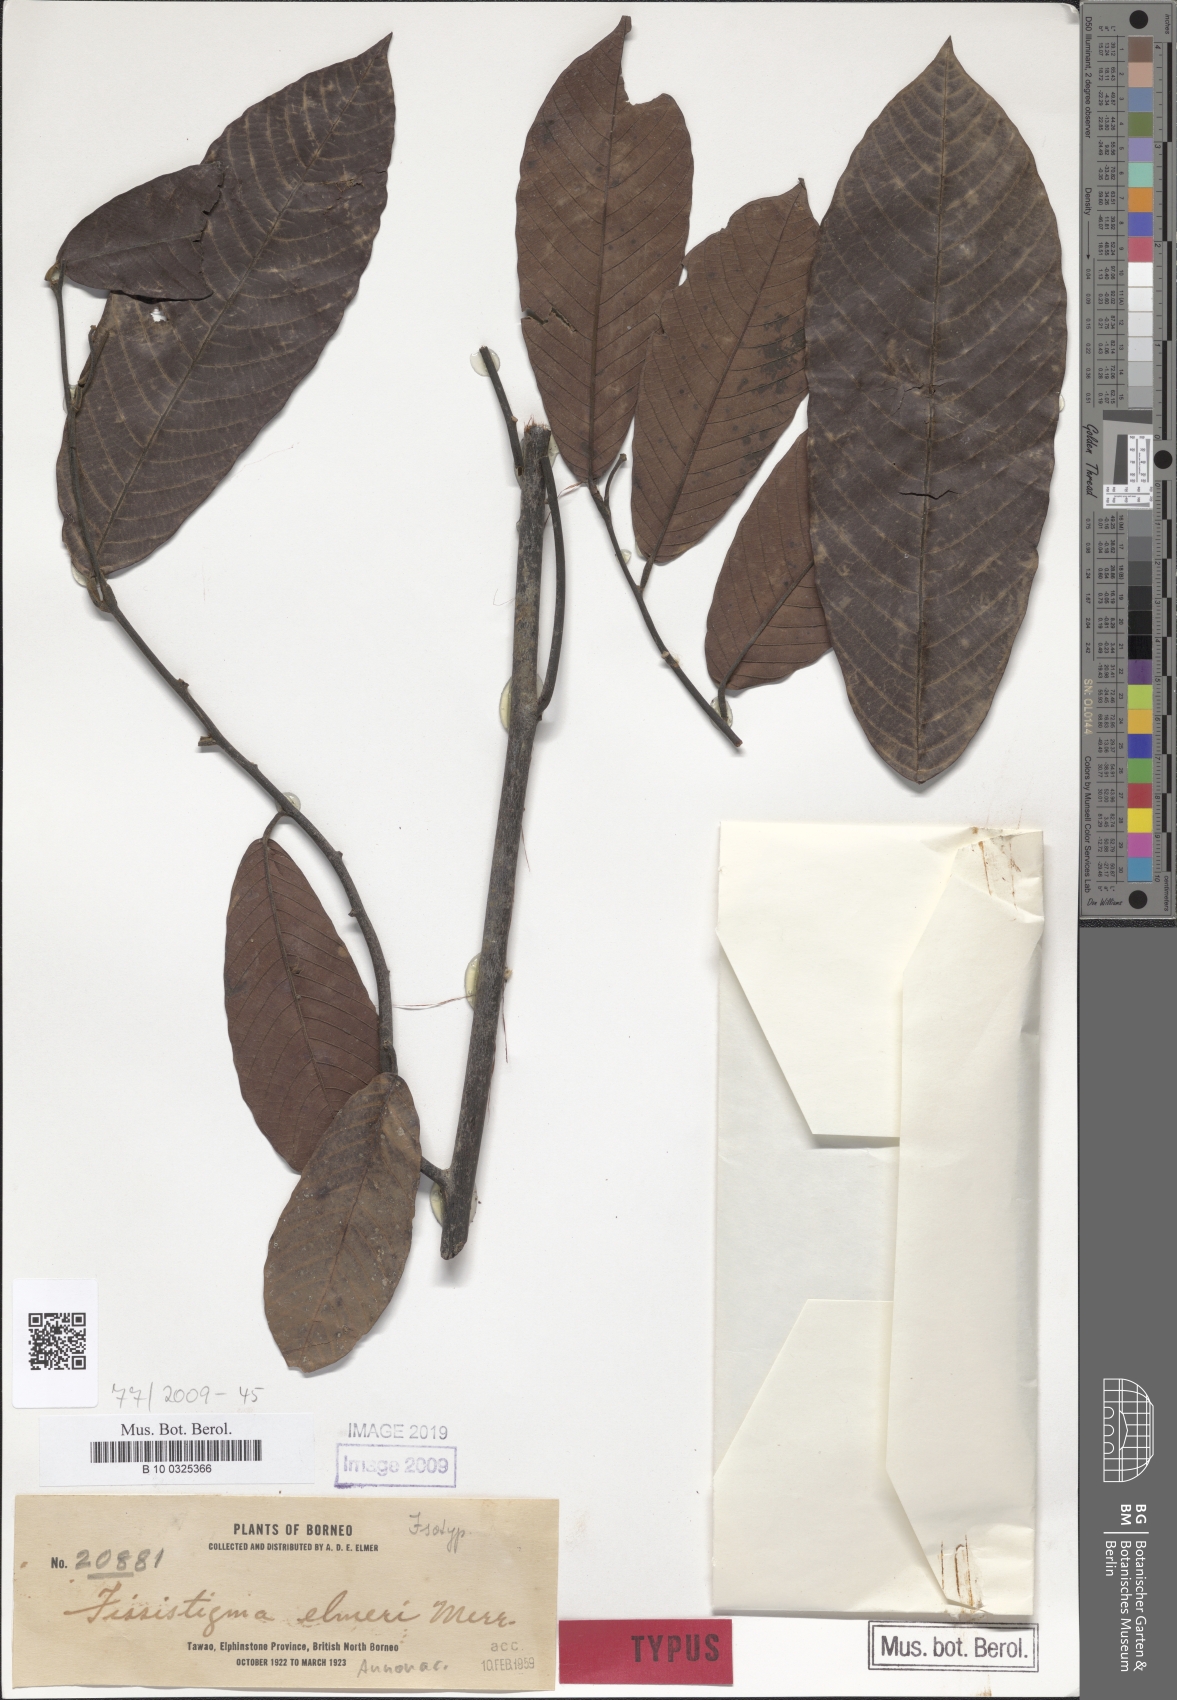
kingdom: Plantae
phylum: Tracheophyta
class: Magnoliopsida
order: Magnoliales
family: Annonaceae
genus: Fissistigma
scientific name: Fissistigma elmeri
